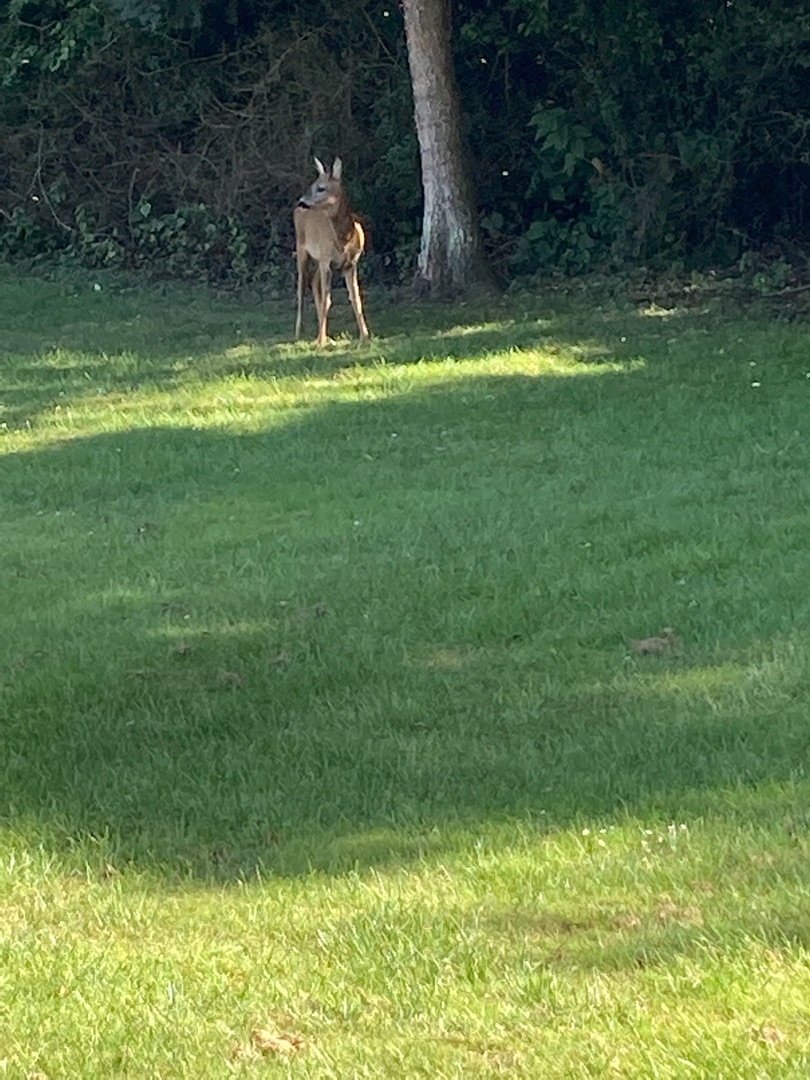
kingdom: Animalia
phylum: Chordata
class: Mammalia
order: Artiodactyla
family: Cervidae
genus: Capreolus
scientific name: Capreolus capreolus
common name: Rådyr
